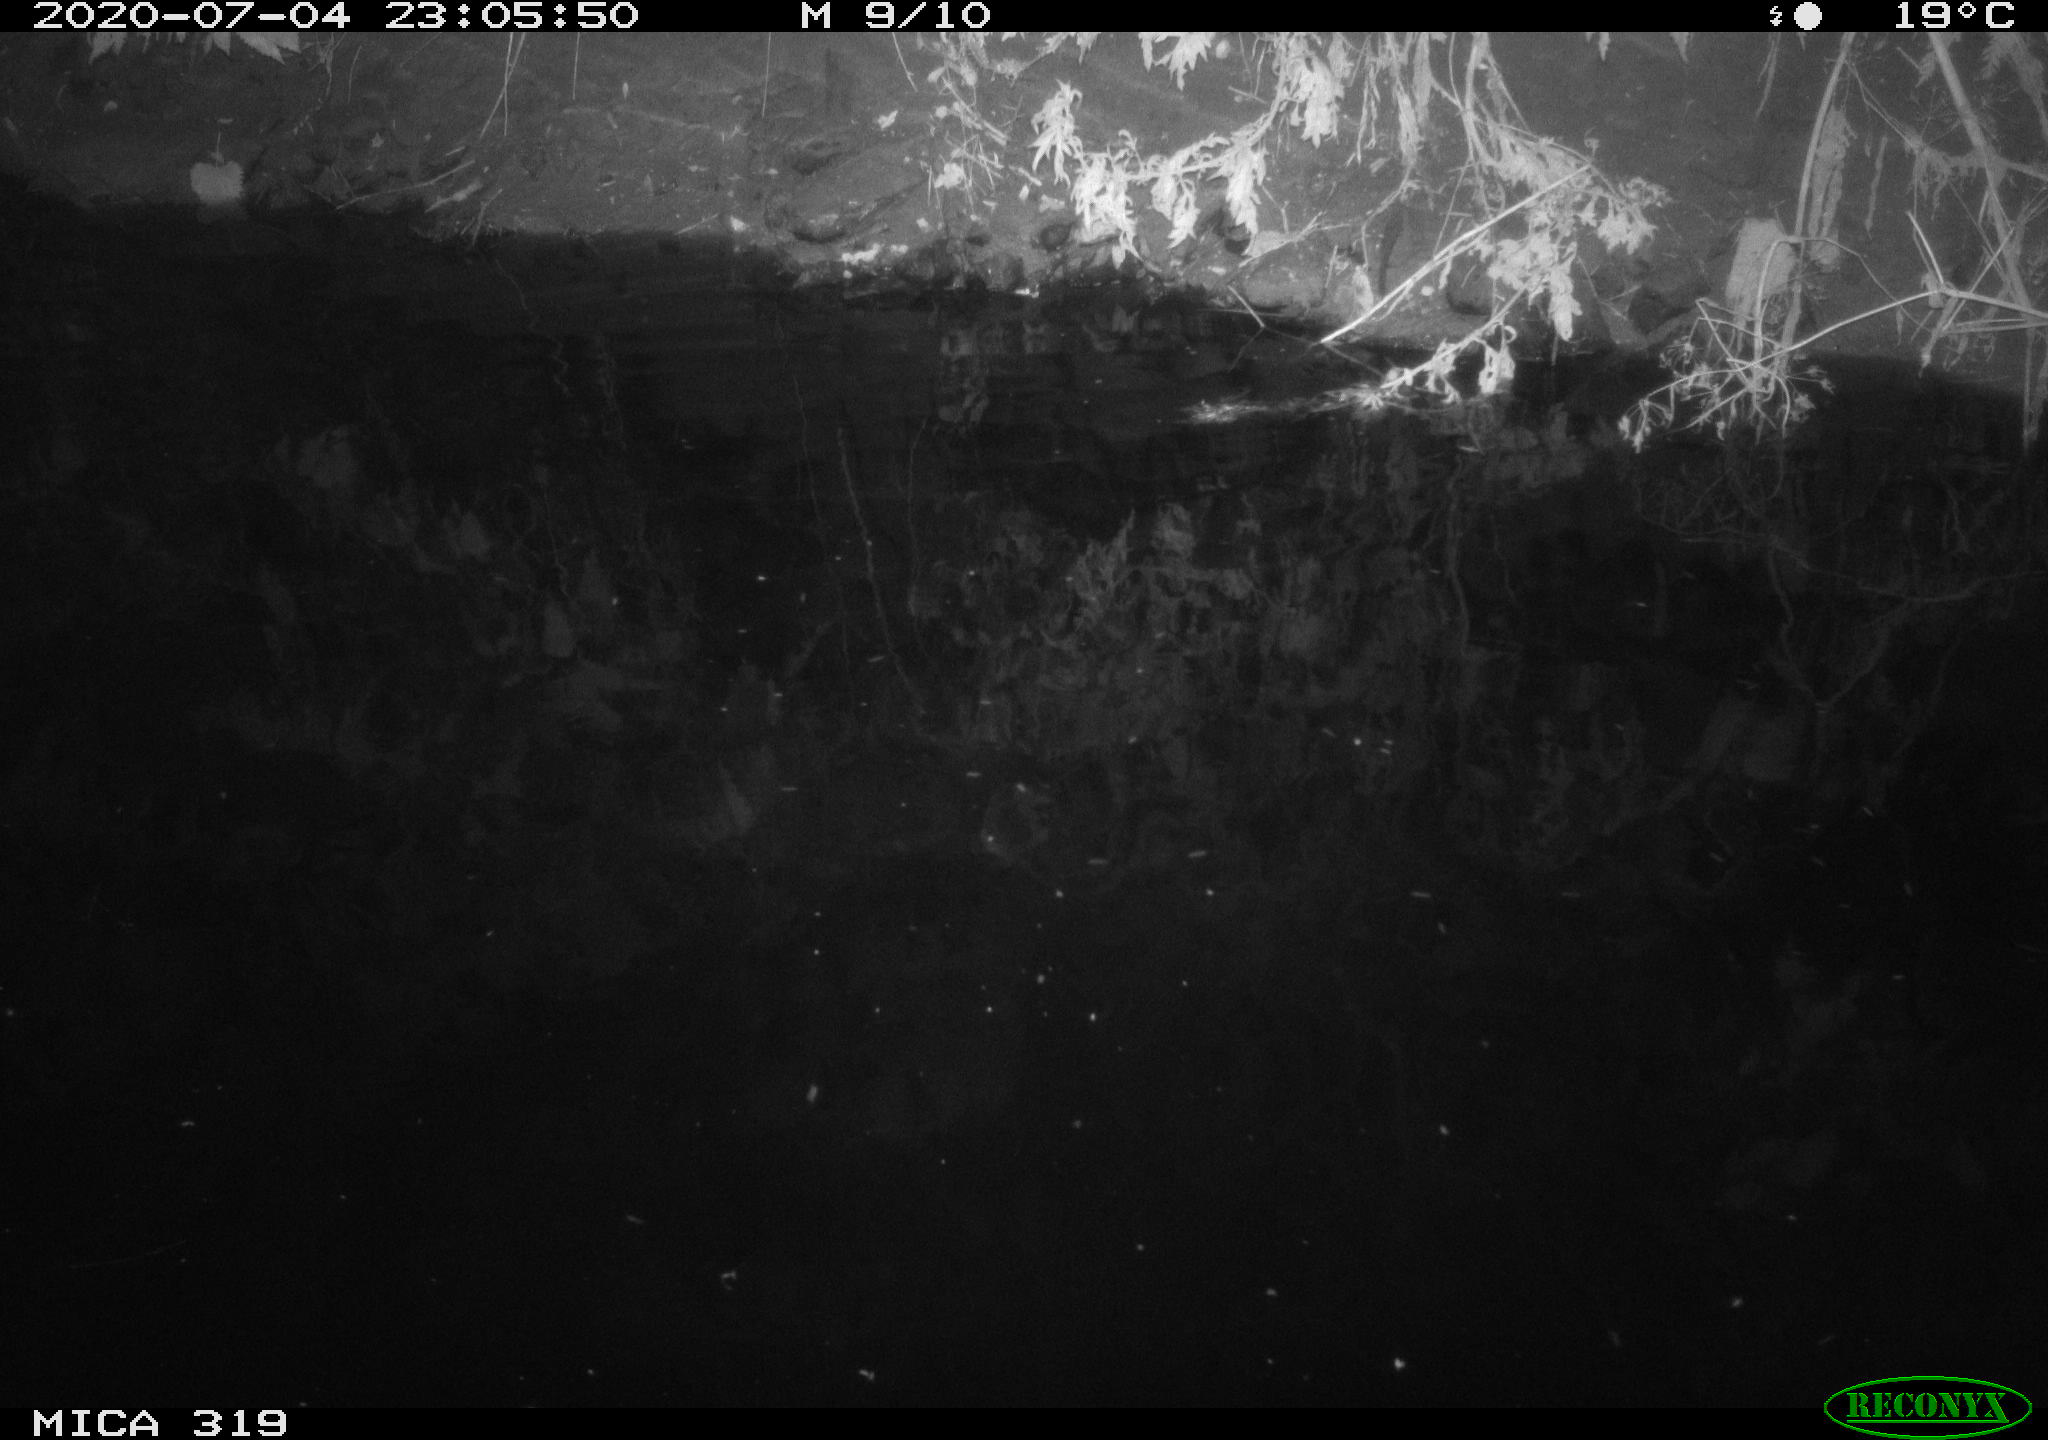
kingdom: Animalia
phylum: Chordata
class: Aves
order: Anseriformes
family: Anatidae
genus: Anas
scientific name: Anas platyrhynchos
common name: Mallard
